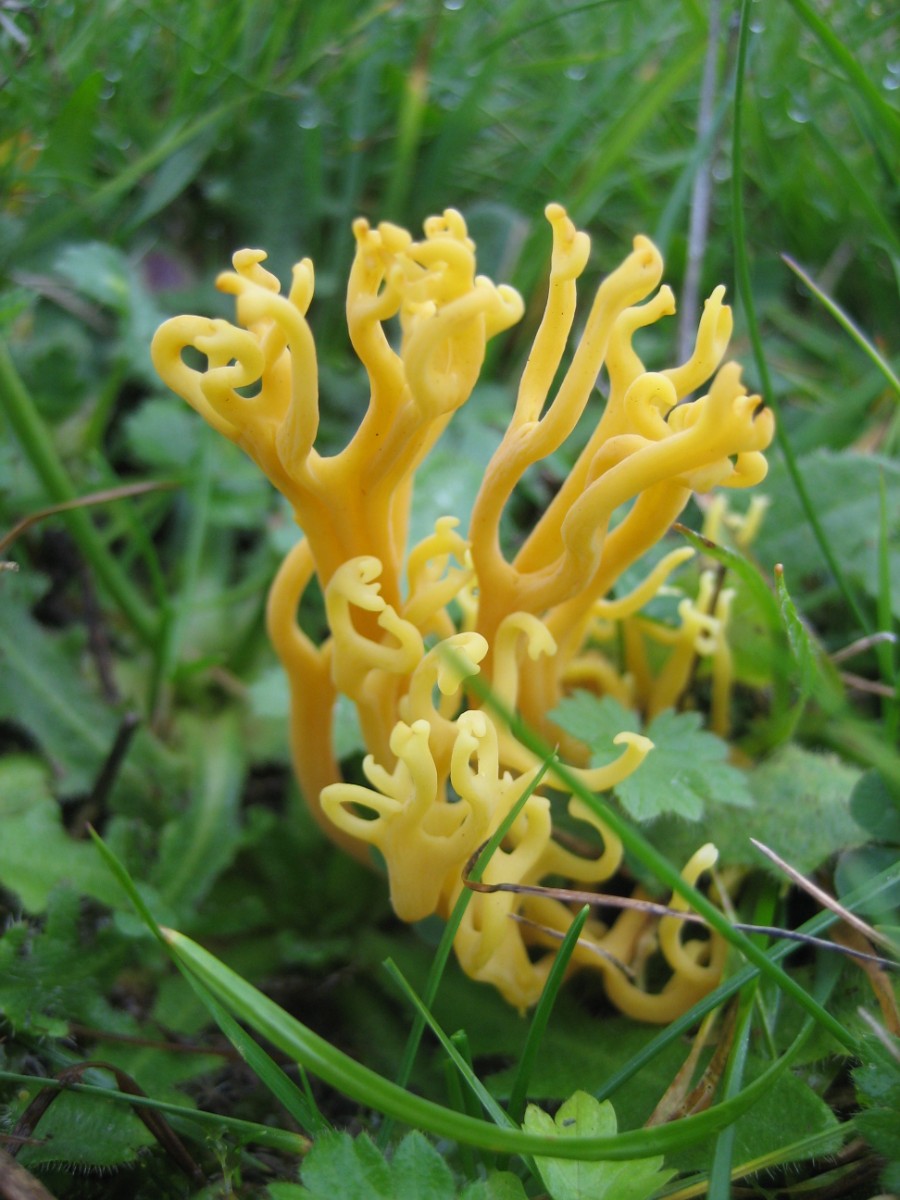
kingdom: Fungi
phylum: Basidiomycota
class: Agaricomycetes
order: Agaricales
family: Clavariaceae
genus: Clavulinopsis
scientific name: Clavulinopsis corniculata
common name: eng-køllesvamp
